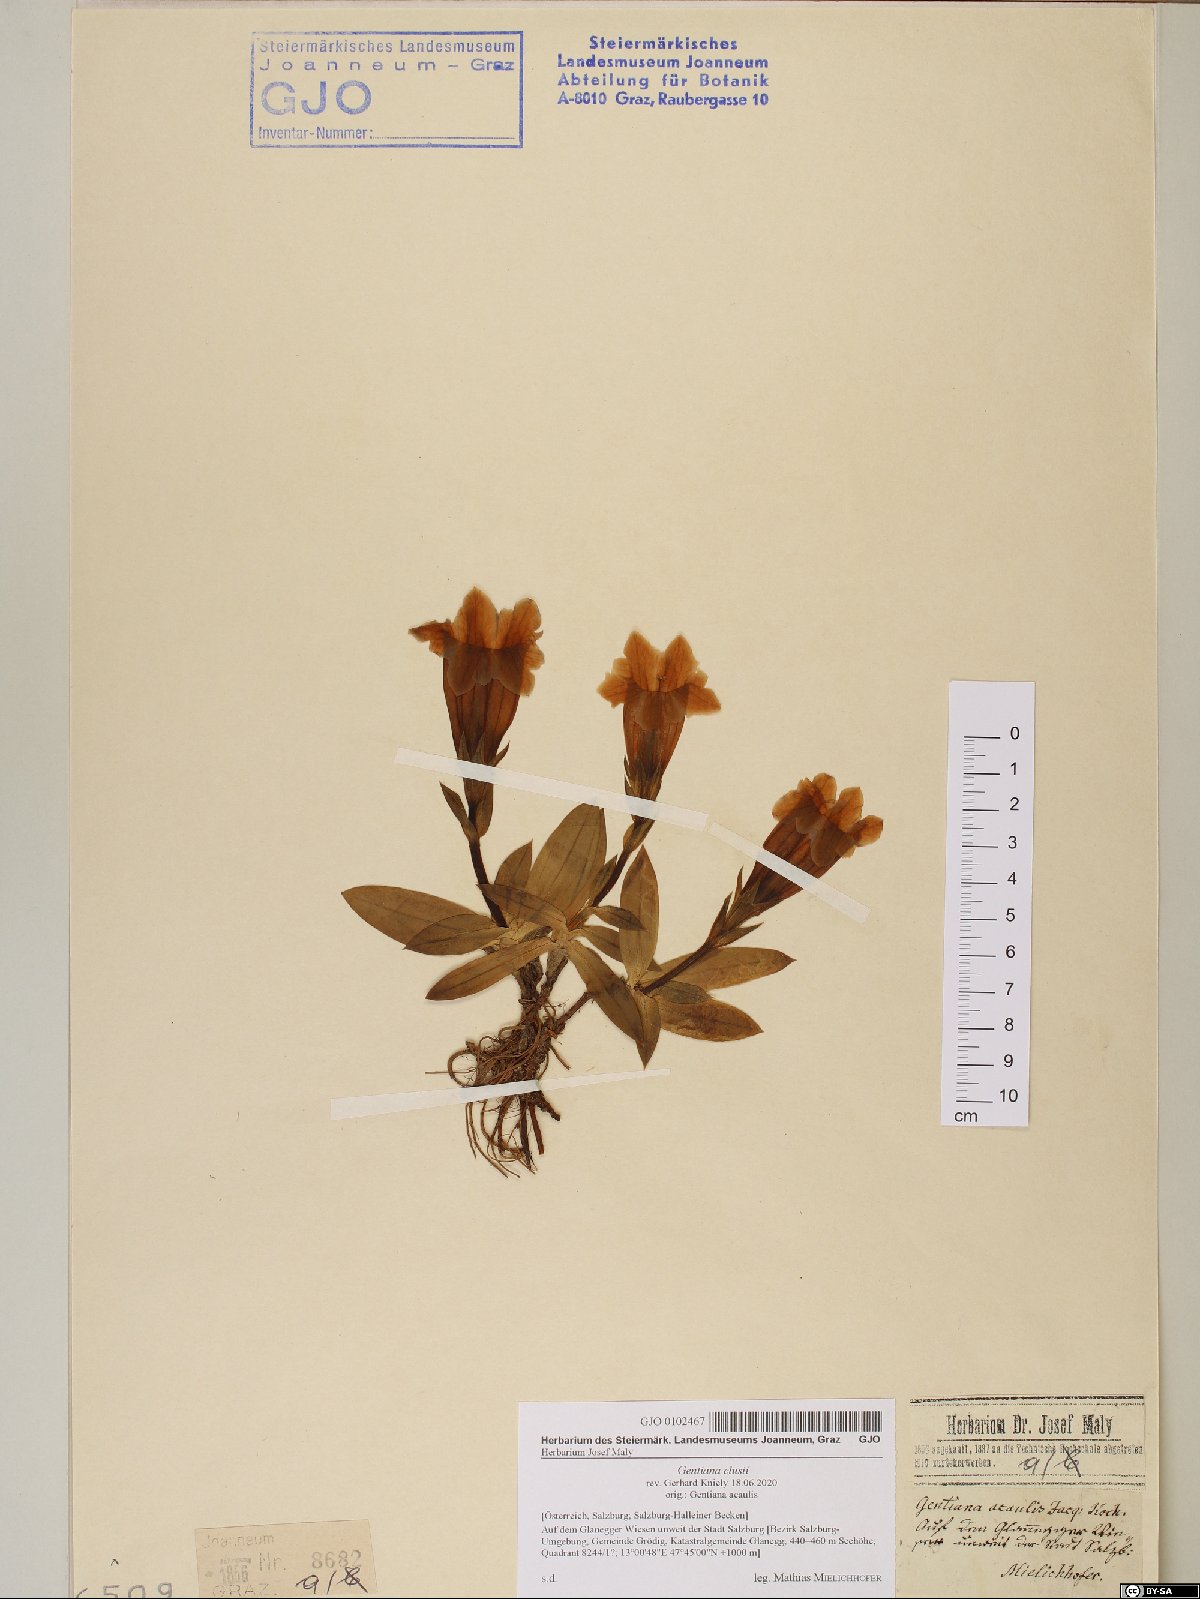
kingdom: Plantae
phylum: Tracheophyta
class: Magnoliopsida
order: Gentianales
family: Gentianaceae
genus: Gentiana
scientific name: Gentiana clusii
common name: Trumpet gentian
